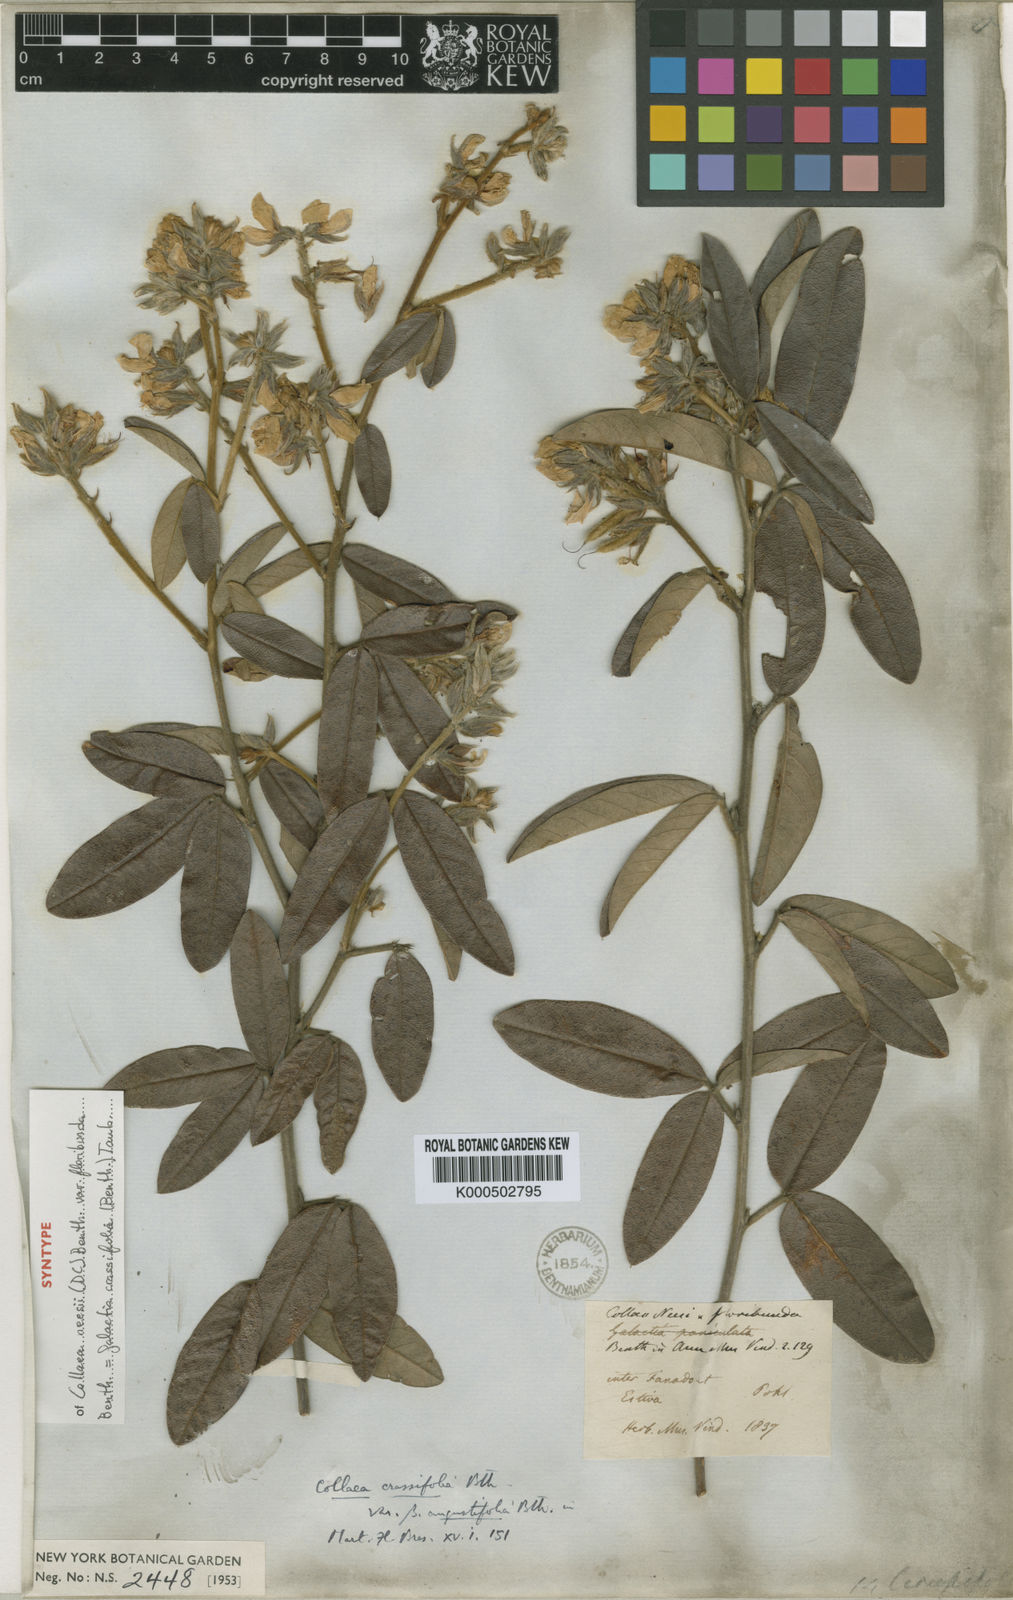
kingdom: Plantae
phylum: Tracheophyta
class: Magnoliopsida
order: Fabales
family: Fabaceae
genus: Betencourtia
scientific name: Betencourtia crassifolia
